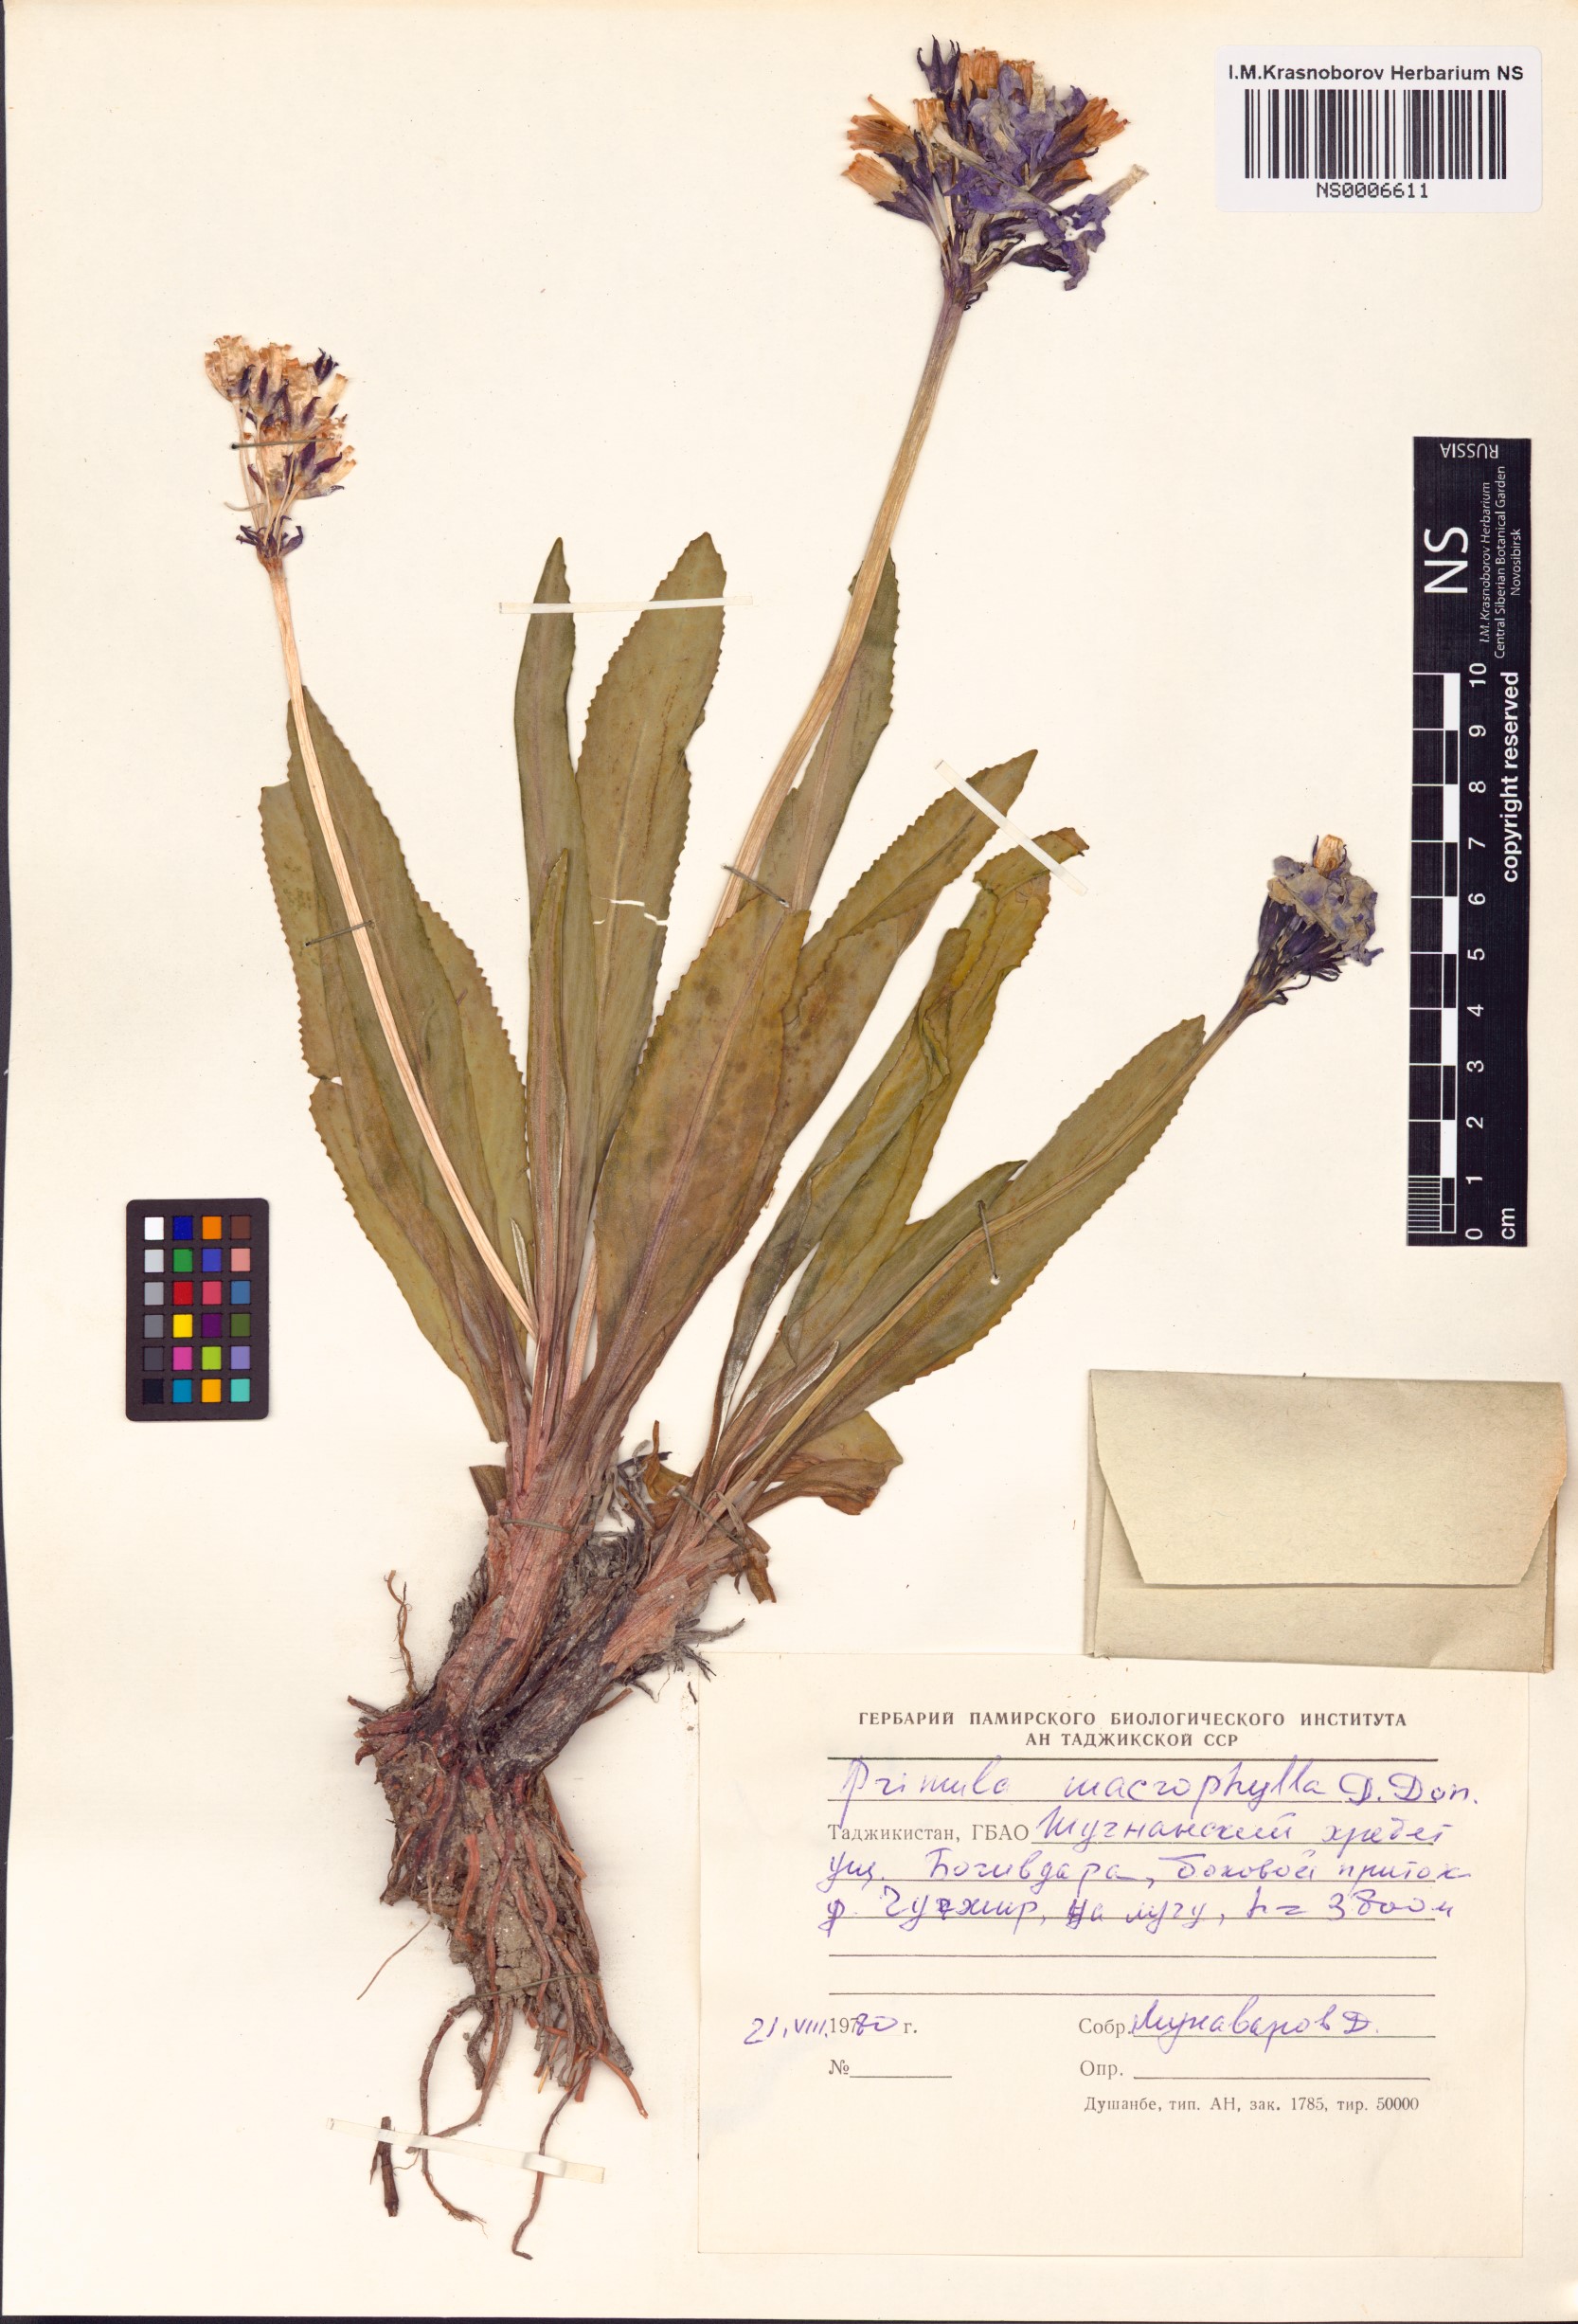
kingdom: Plantae
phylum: Tracheophyta
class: Magnoliopsida
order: Ericales
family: Primulaceae
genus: Primula
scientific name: Primula macrophylla
